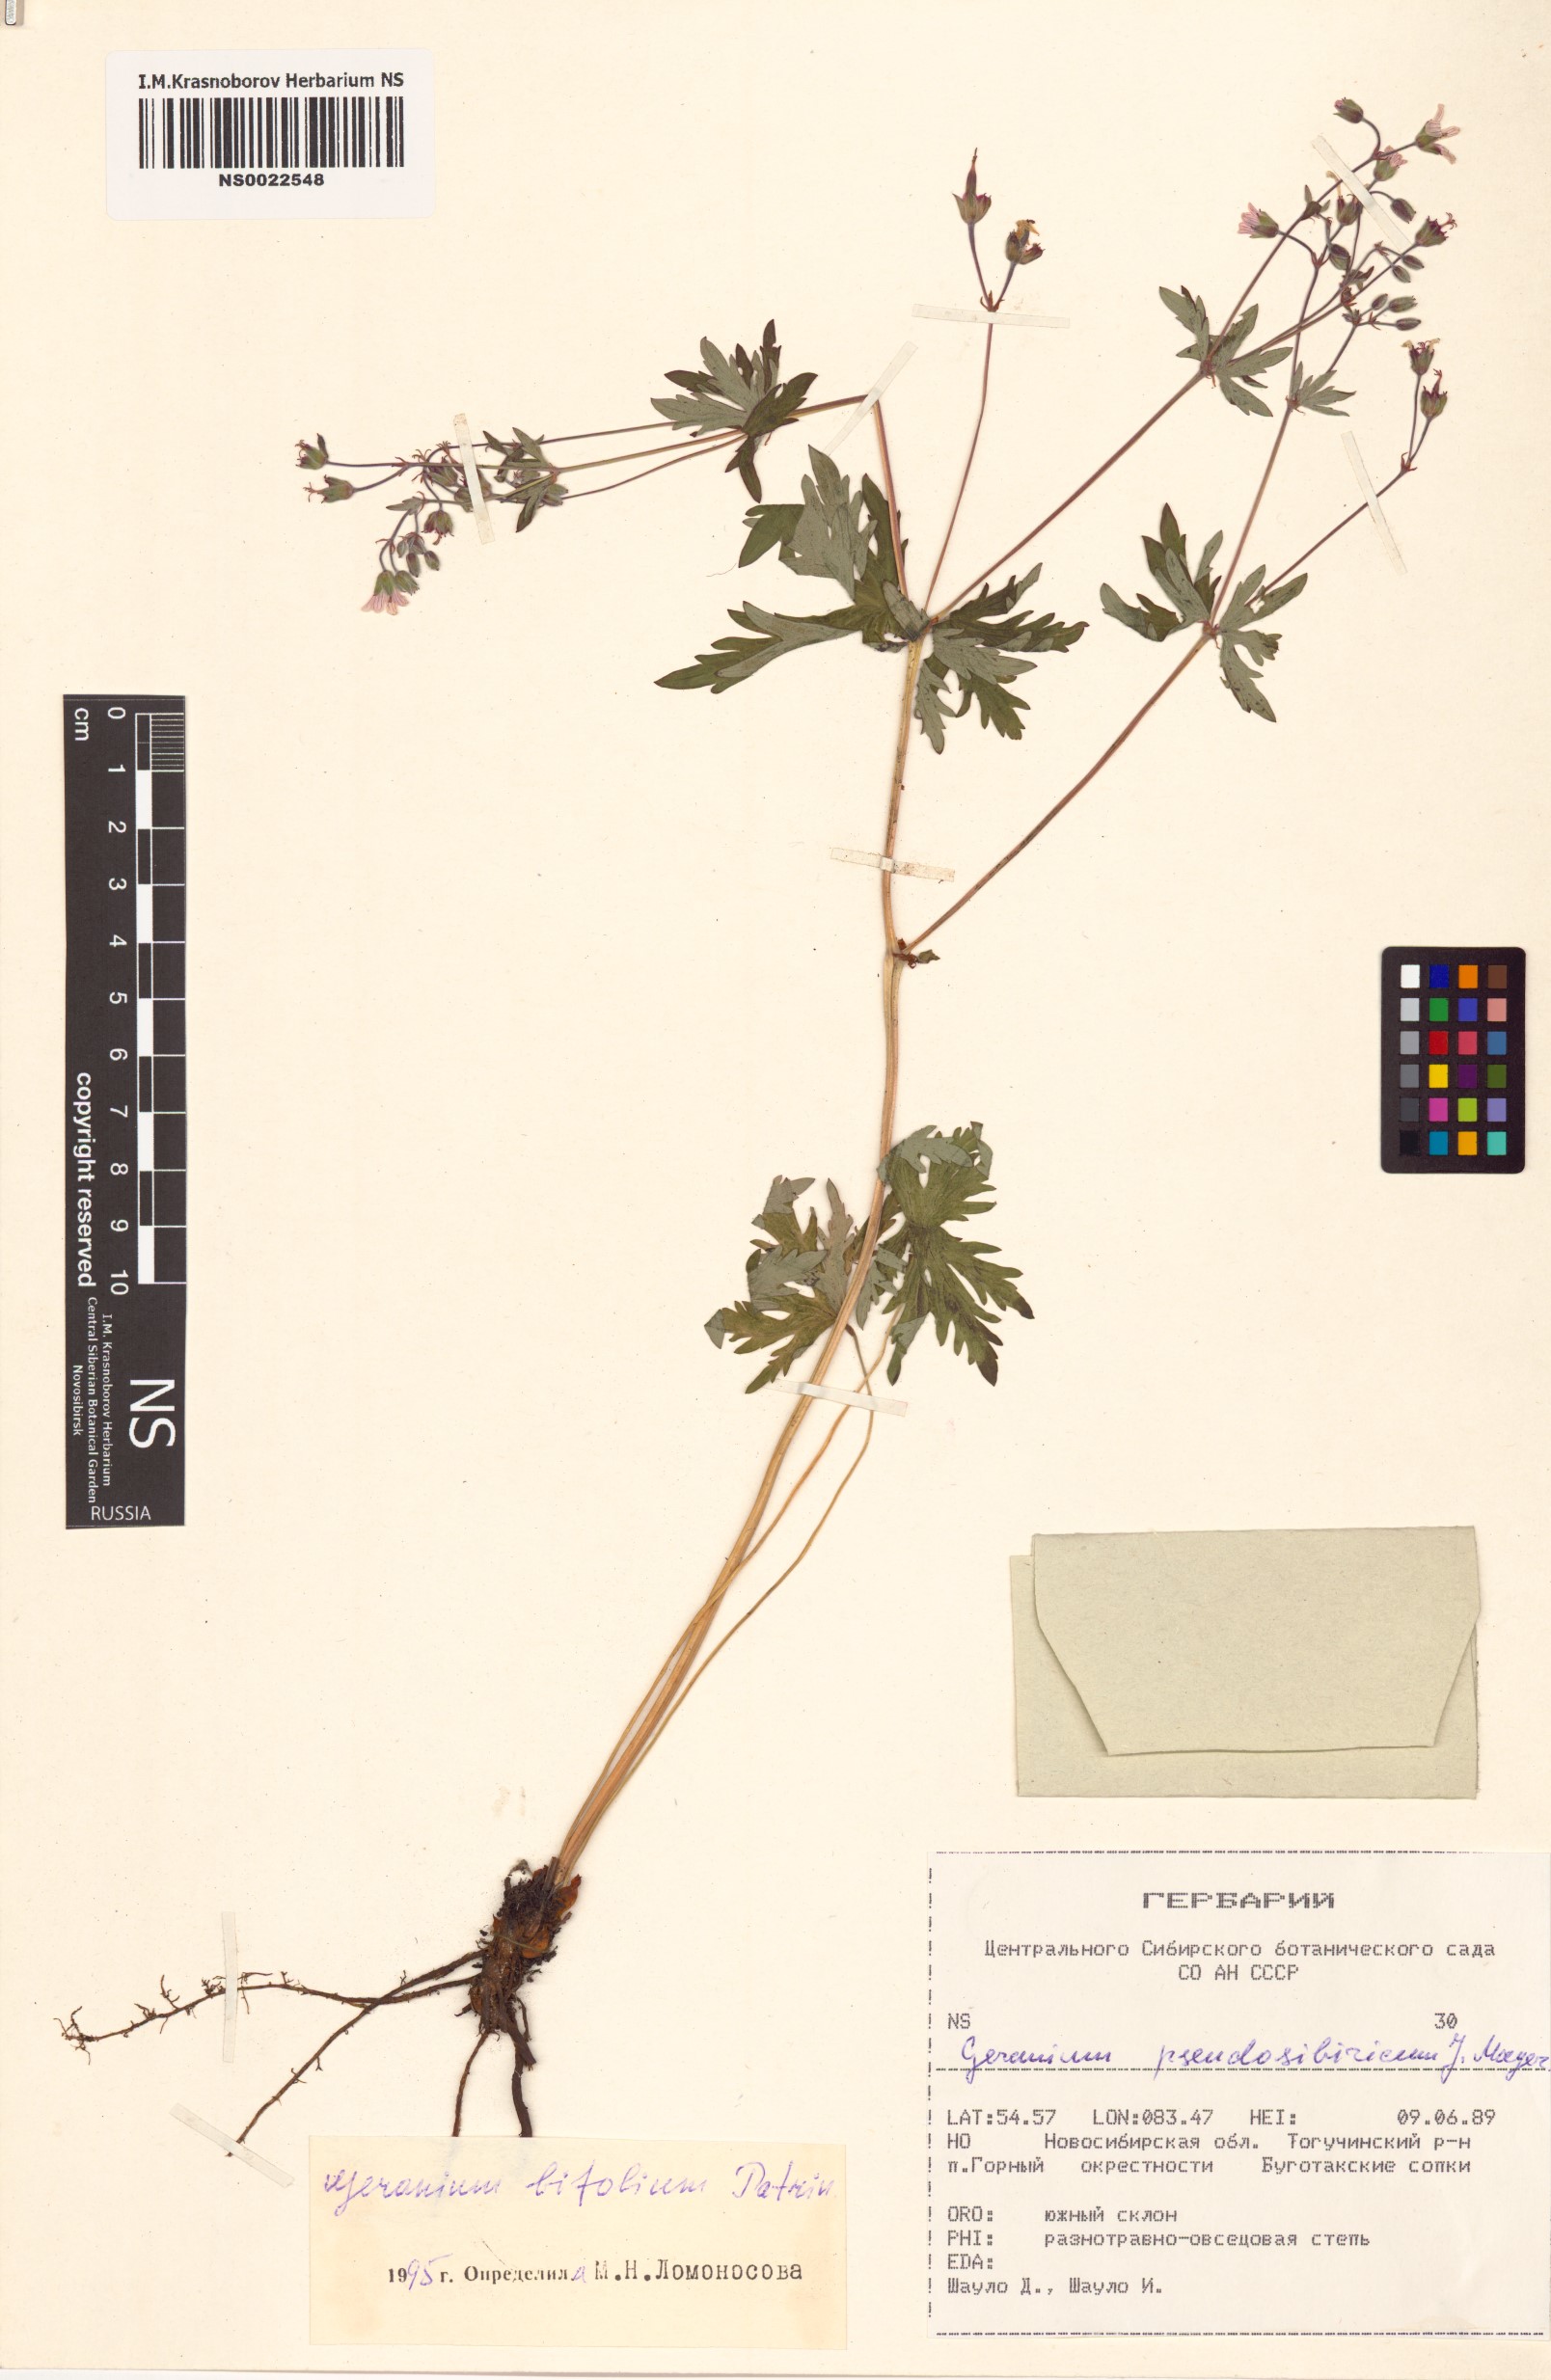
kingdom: Plantae
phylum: Tracheophyta
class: Magnoliopsida
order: Geraniales
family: Geraniaceae
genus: Geranium
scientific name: Geranium pseudosibiricum
